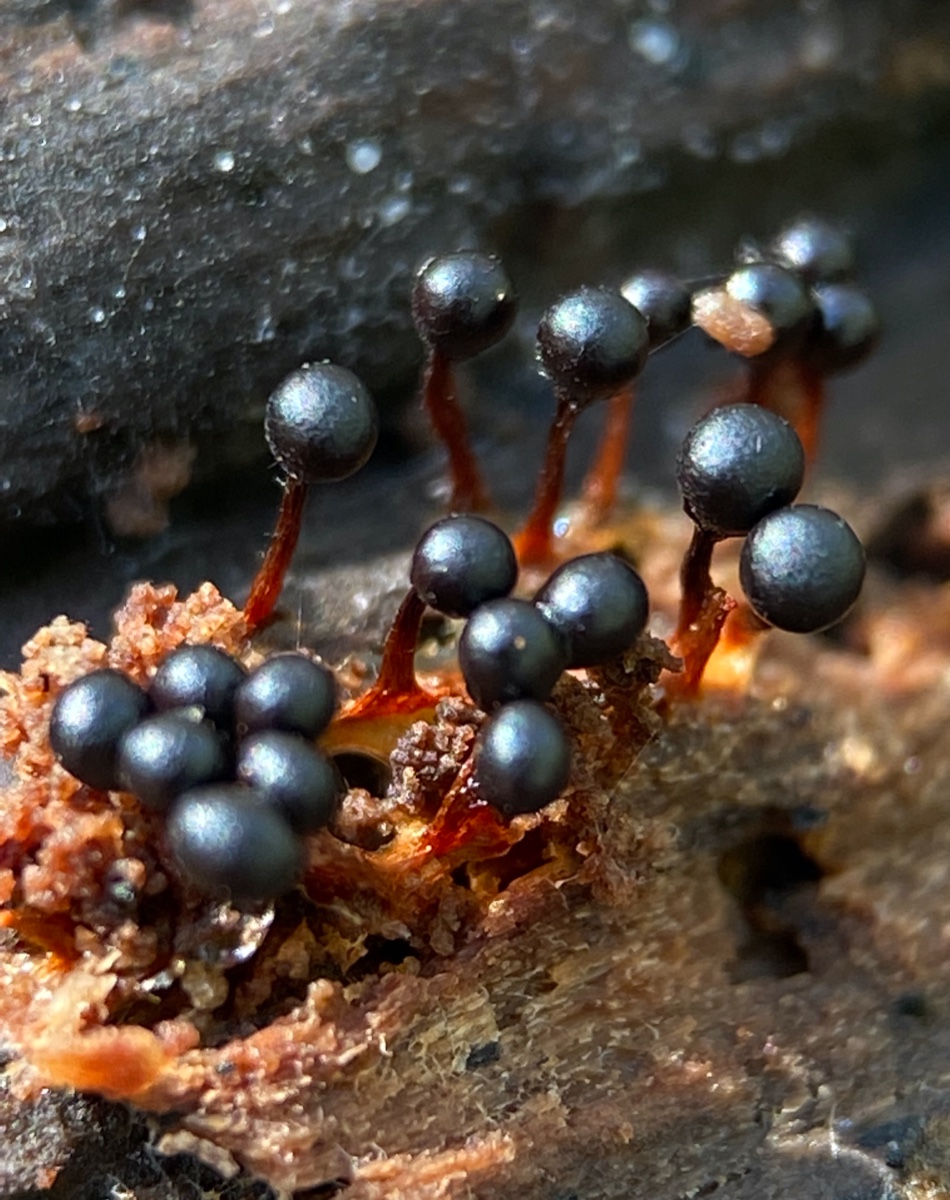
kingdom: Protozoa
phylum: Mycetozoa
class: Myxomycetes
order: Trichiales
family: Trichiaceae
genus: Metatrichia
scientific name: Metatrichia floriformis
